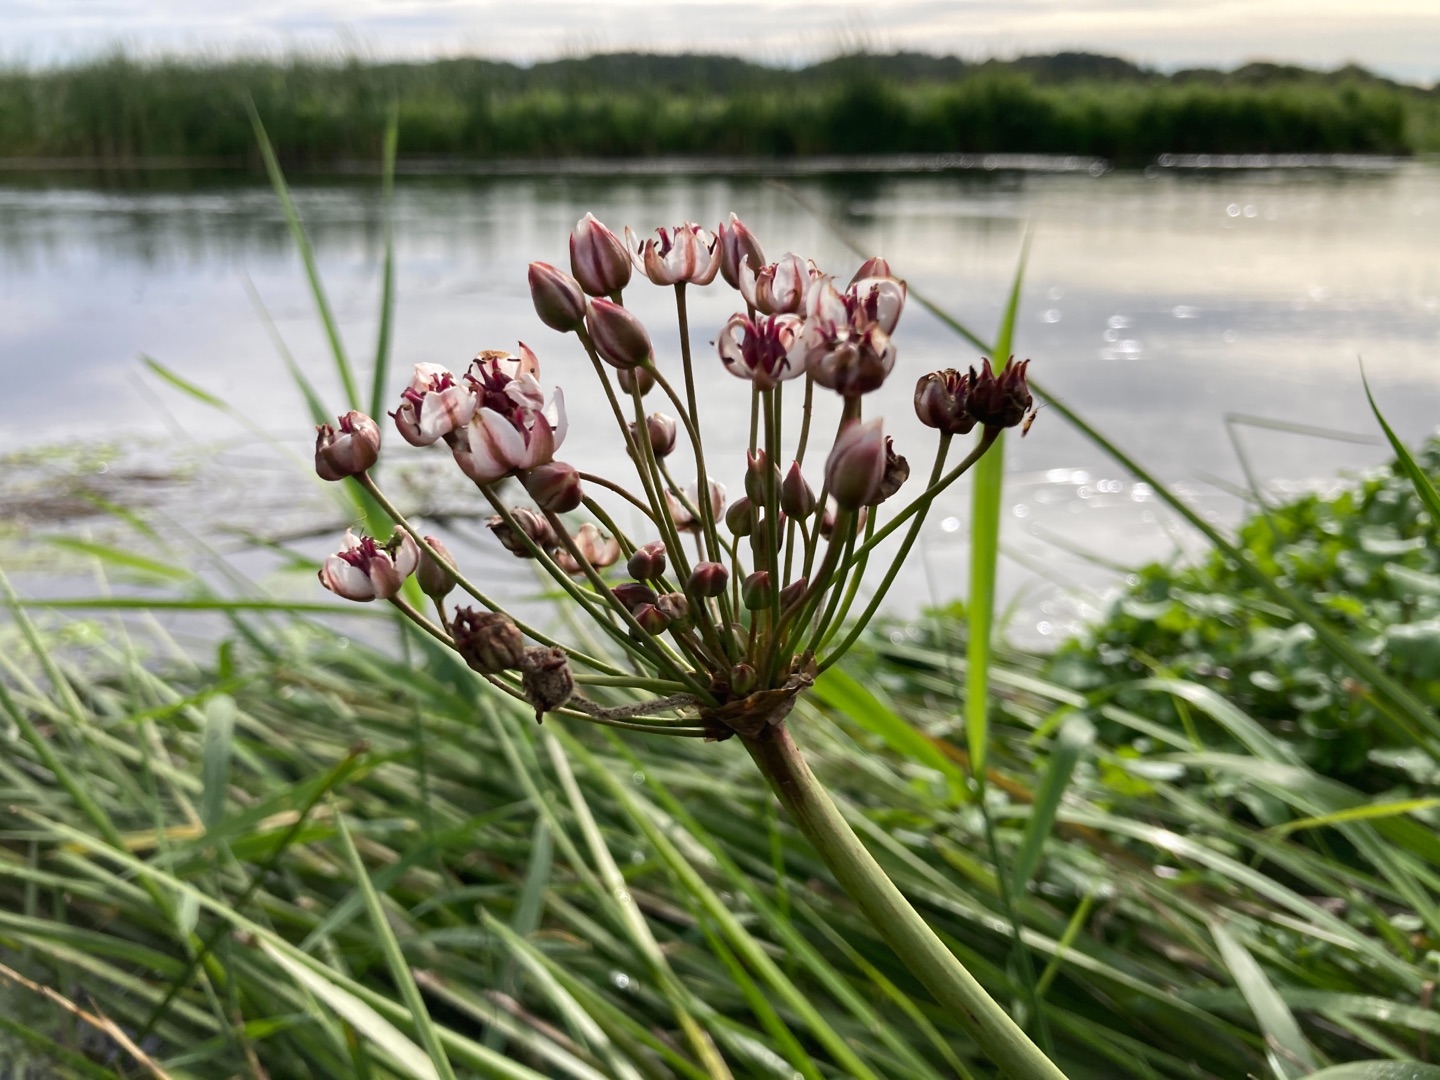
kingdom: Plantae
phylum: Tracheophyta
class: Liliopsida
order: Alismatales
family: Butomaceae
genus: Butomus
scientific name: Butomus umbellatus
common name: Brudelys
